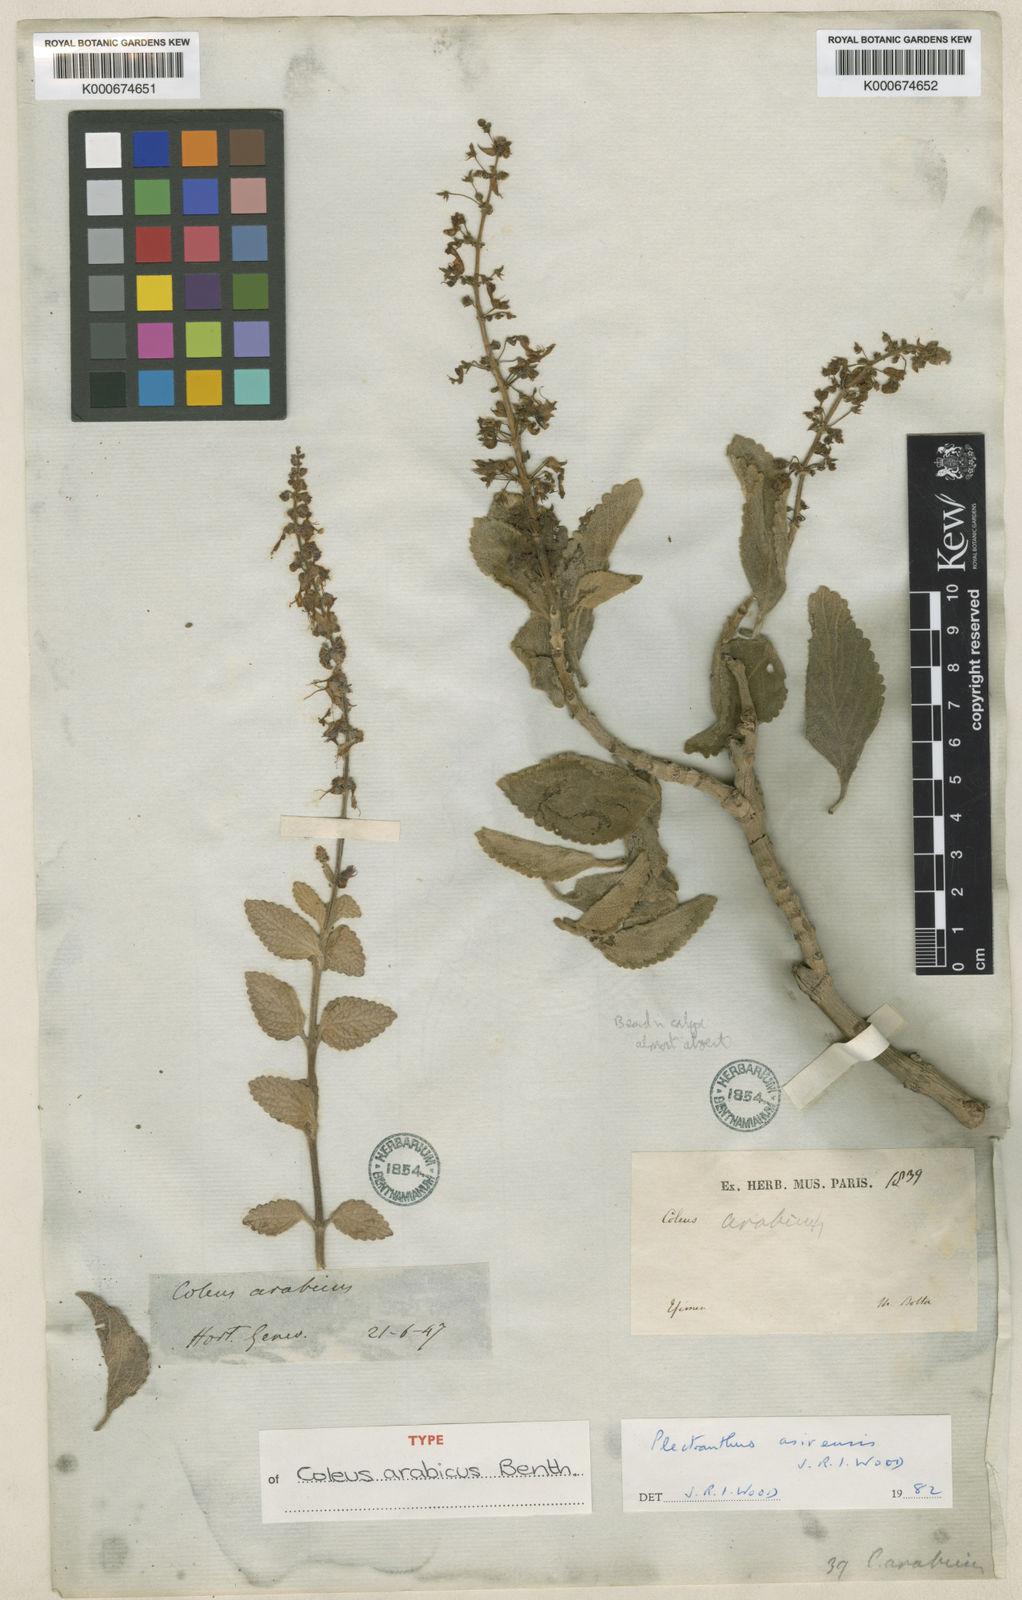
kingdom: Plantae
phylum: Tracheophyta
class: Magnoliopsida
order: Lamiales
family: Lamiaceae
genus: Coleus
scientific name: Coleus arabicus
